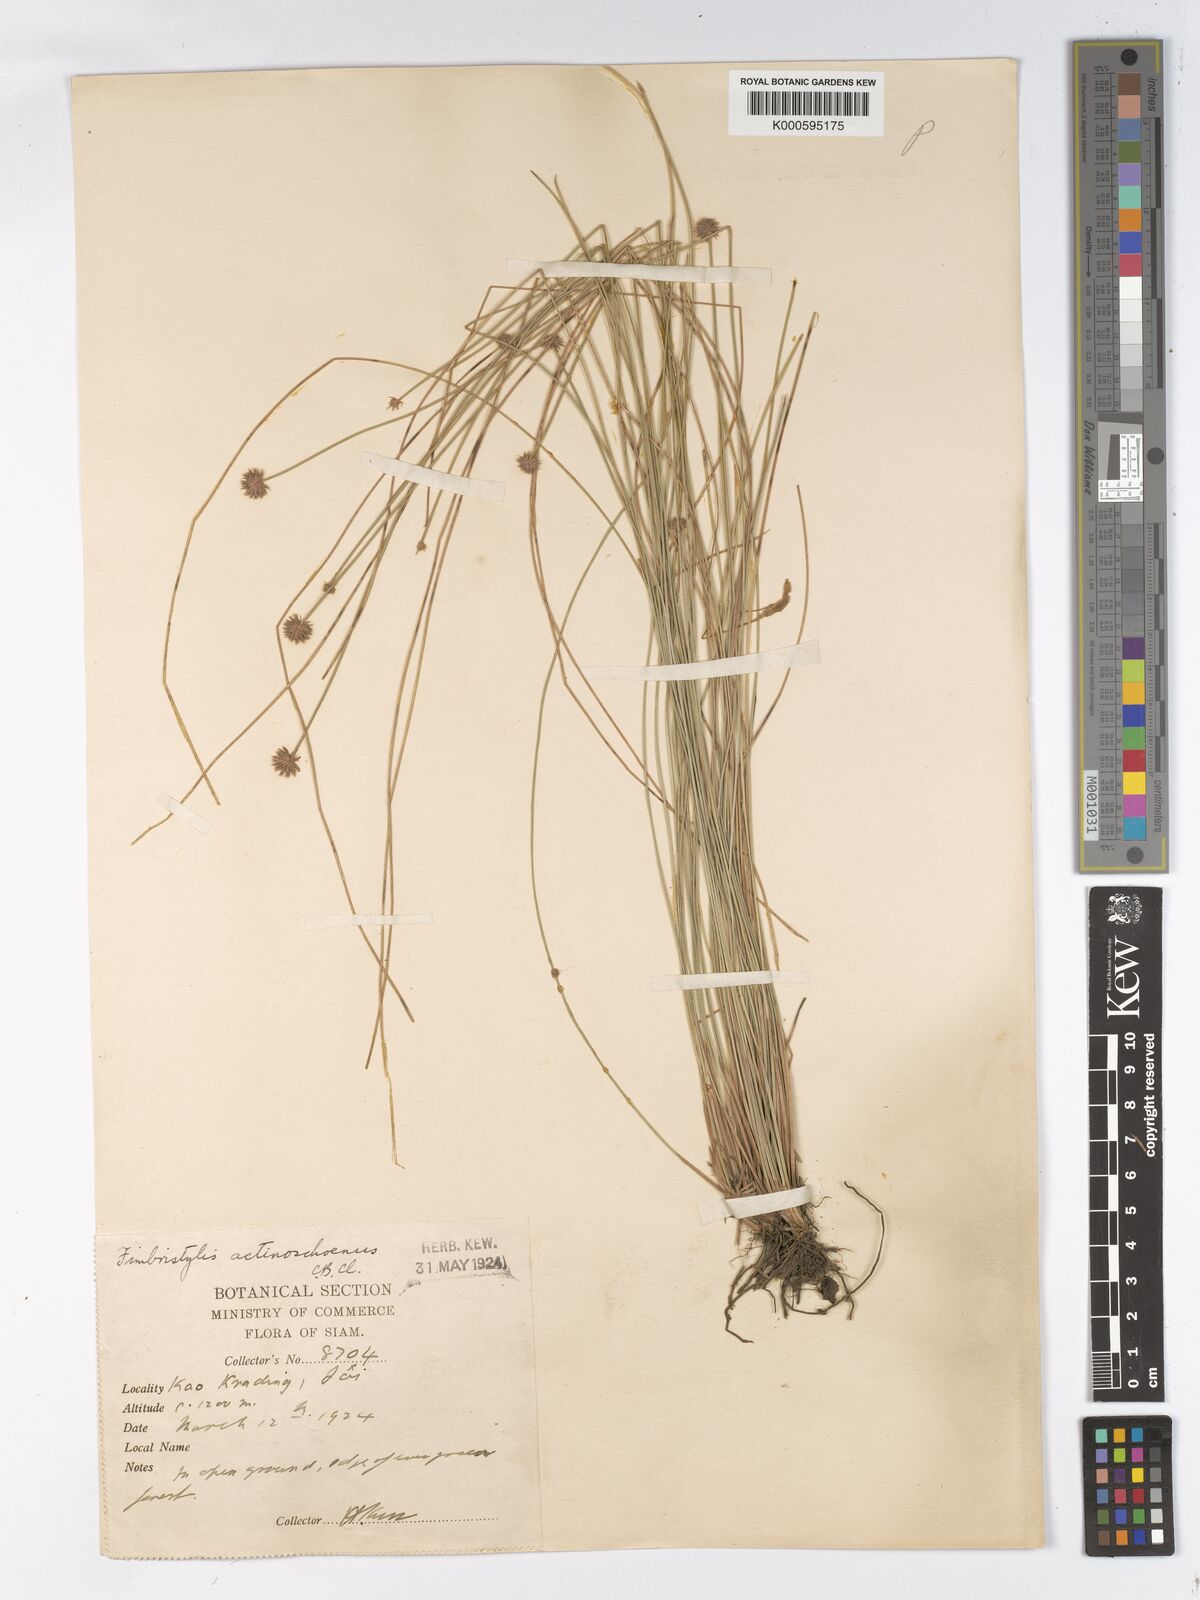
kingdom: Plantae
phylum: Tracheophyta
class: Liliopsida
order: Poales
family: Cyperaceae
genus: Actinoschoenus
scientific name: Actinoschoenus aphyllus
